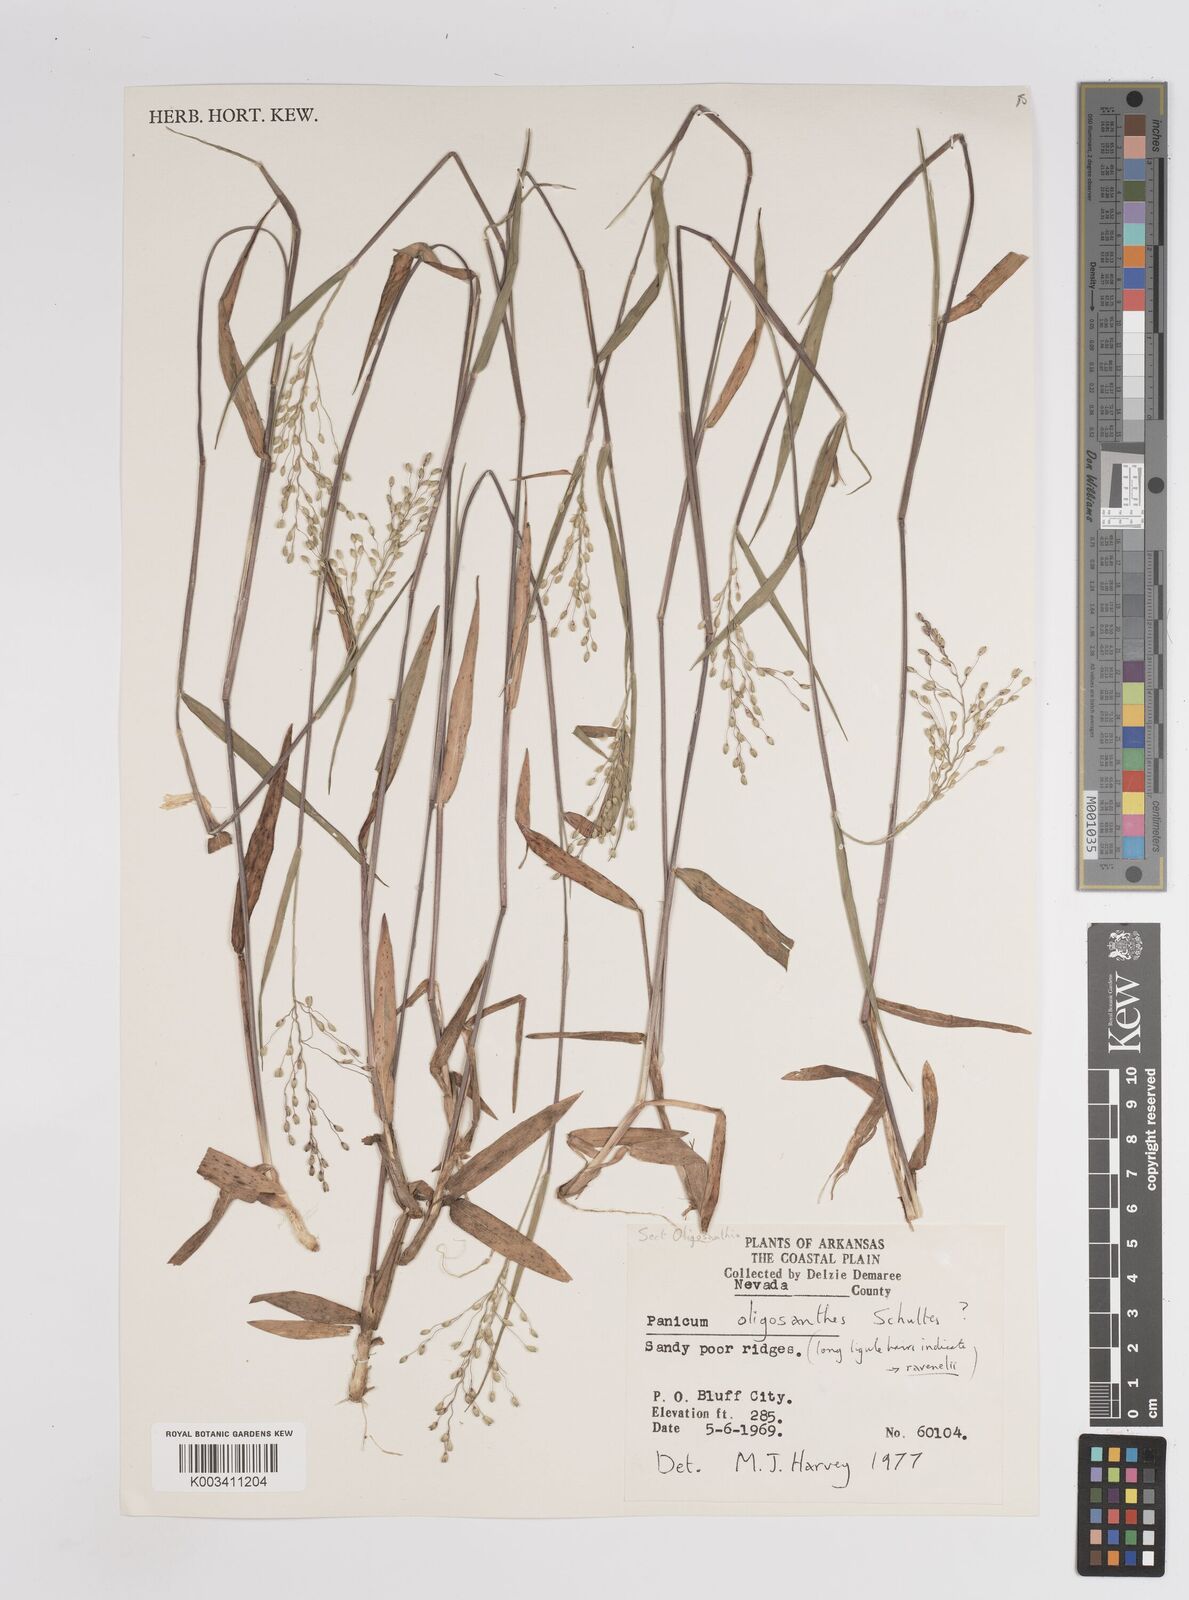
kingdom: Plantae
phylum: Tracheophyta
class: Liliopsida
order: Poales
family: Poaceae
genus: Dichanthelium
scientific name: Dichanthelium oligosanthes
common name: Few-anther obscuregrass
